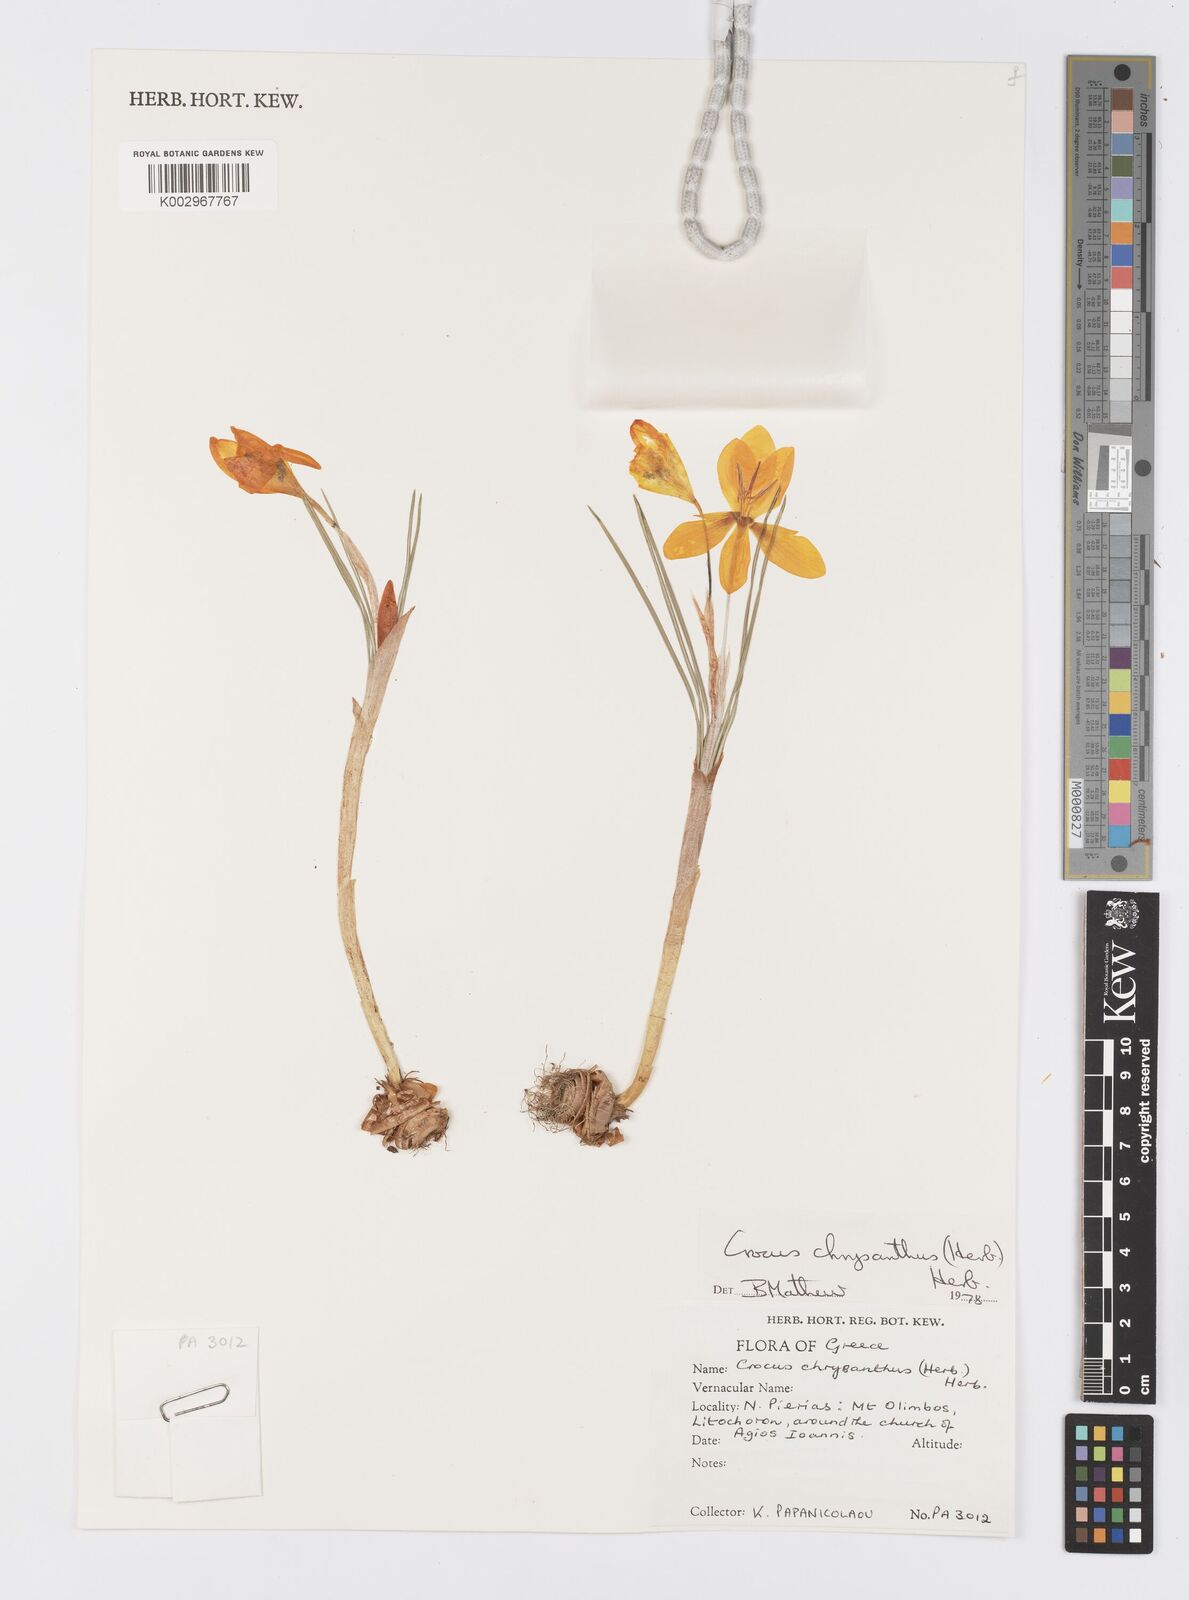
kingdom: Plantae
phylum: Tracheophyta
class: Liliopsida
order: Asparagales
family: Iridaceae
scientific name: Iridaceae
